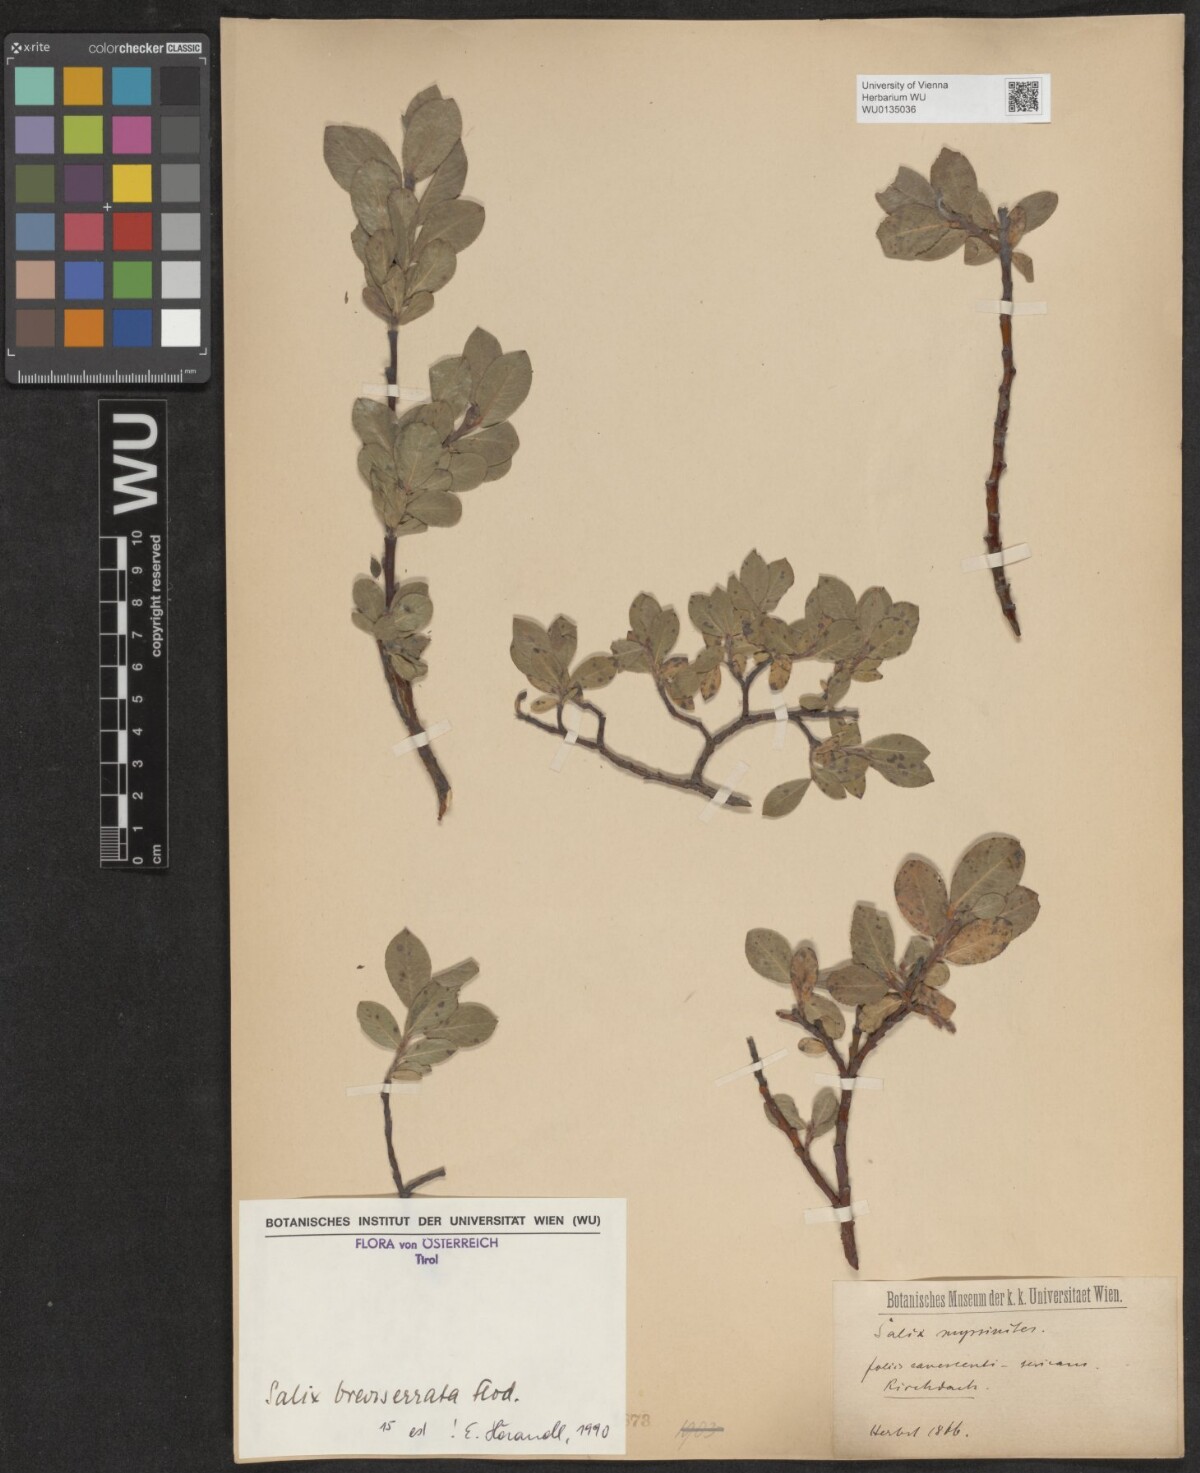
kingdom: Plantae
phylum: Tracheophyta
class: Magnoliopsida
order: Malpighiales
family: Salicaceae
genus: Salix
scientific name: Salix breviserrata
